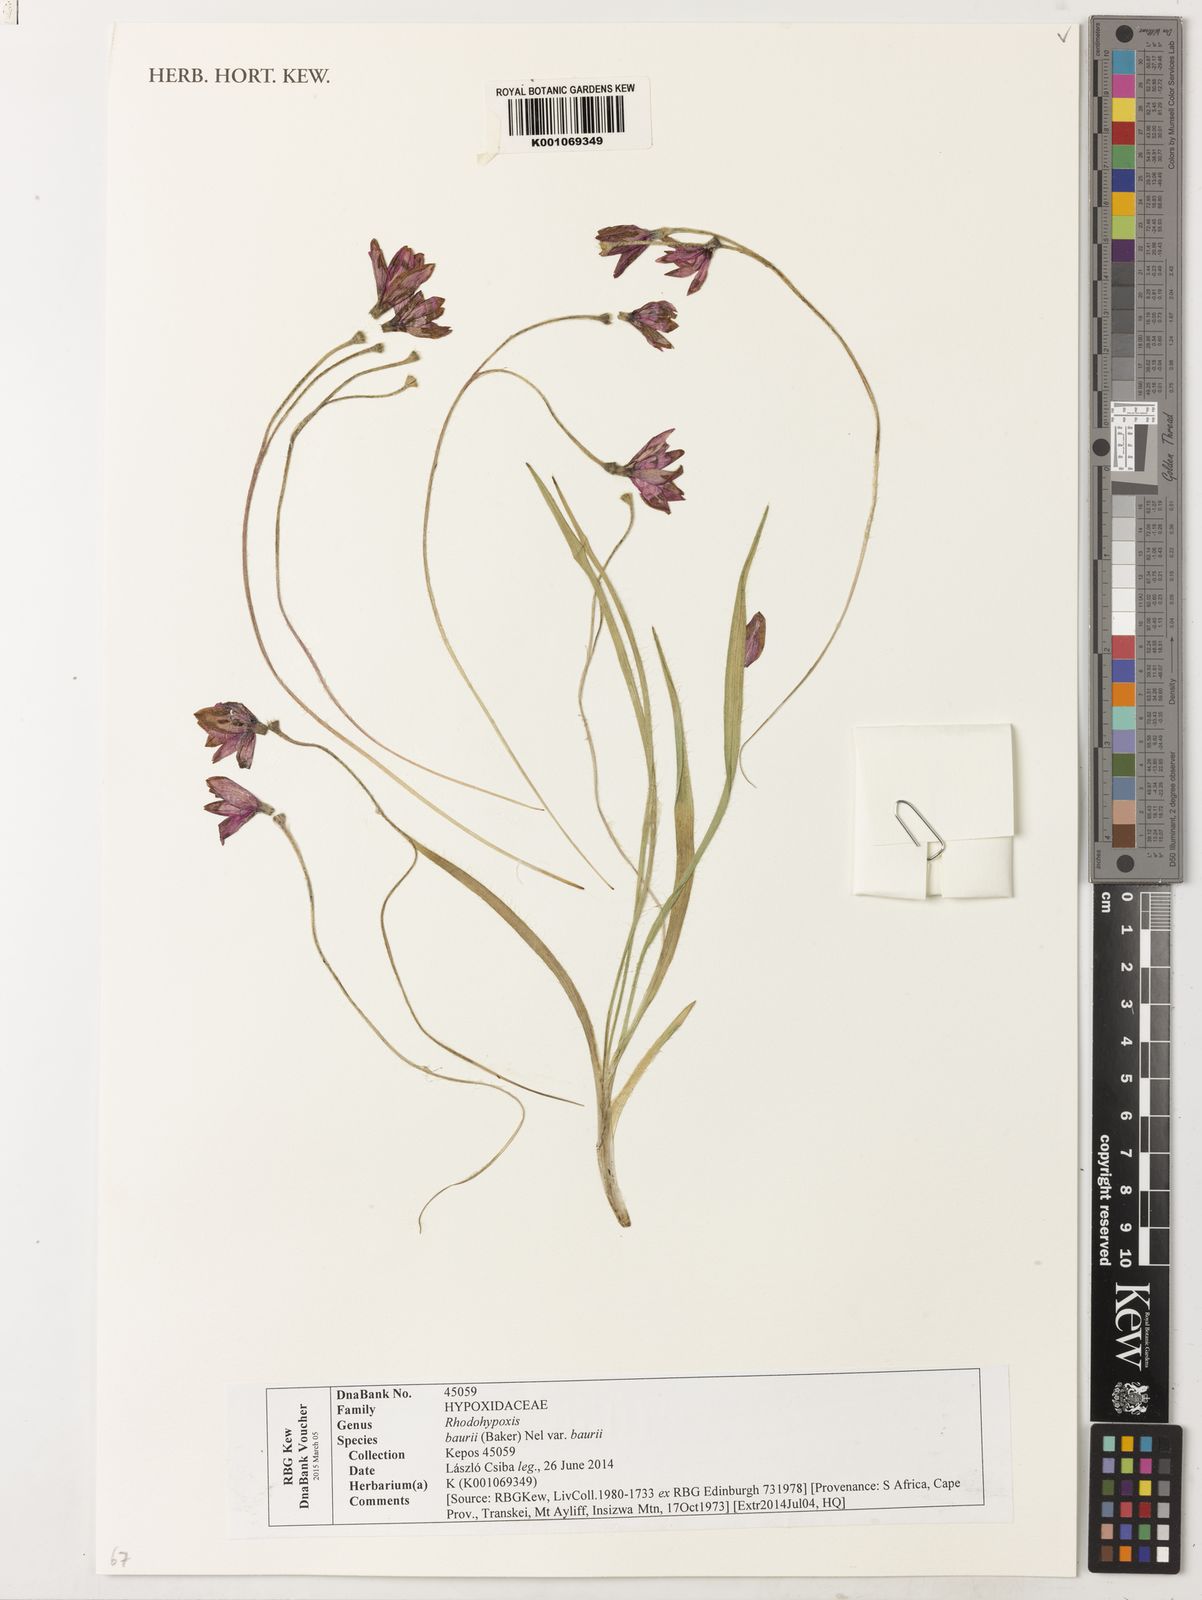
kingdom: Plantae
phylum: Tracheophyta
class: Liliopsida
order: Asparagales
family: Hypoxidaceae
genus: Hypoxis
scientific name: Hypoxis baurii
